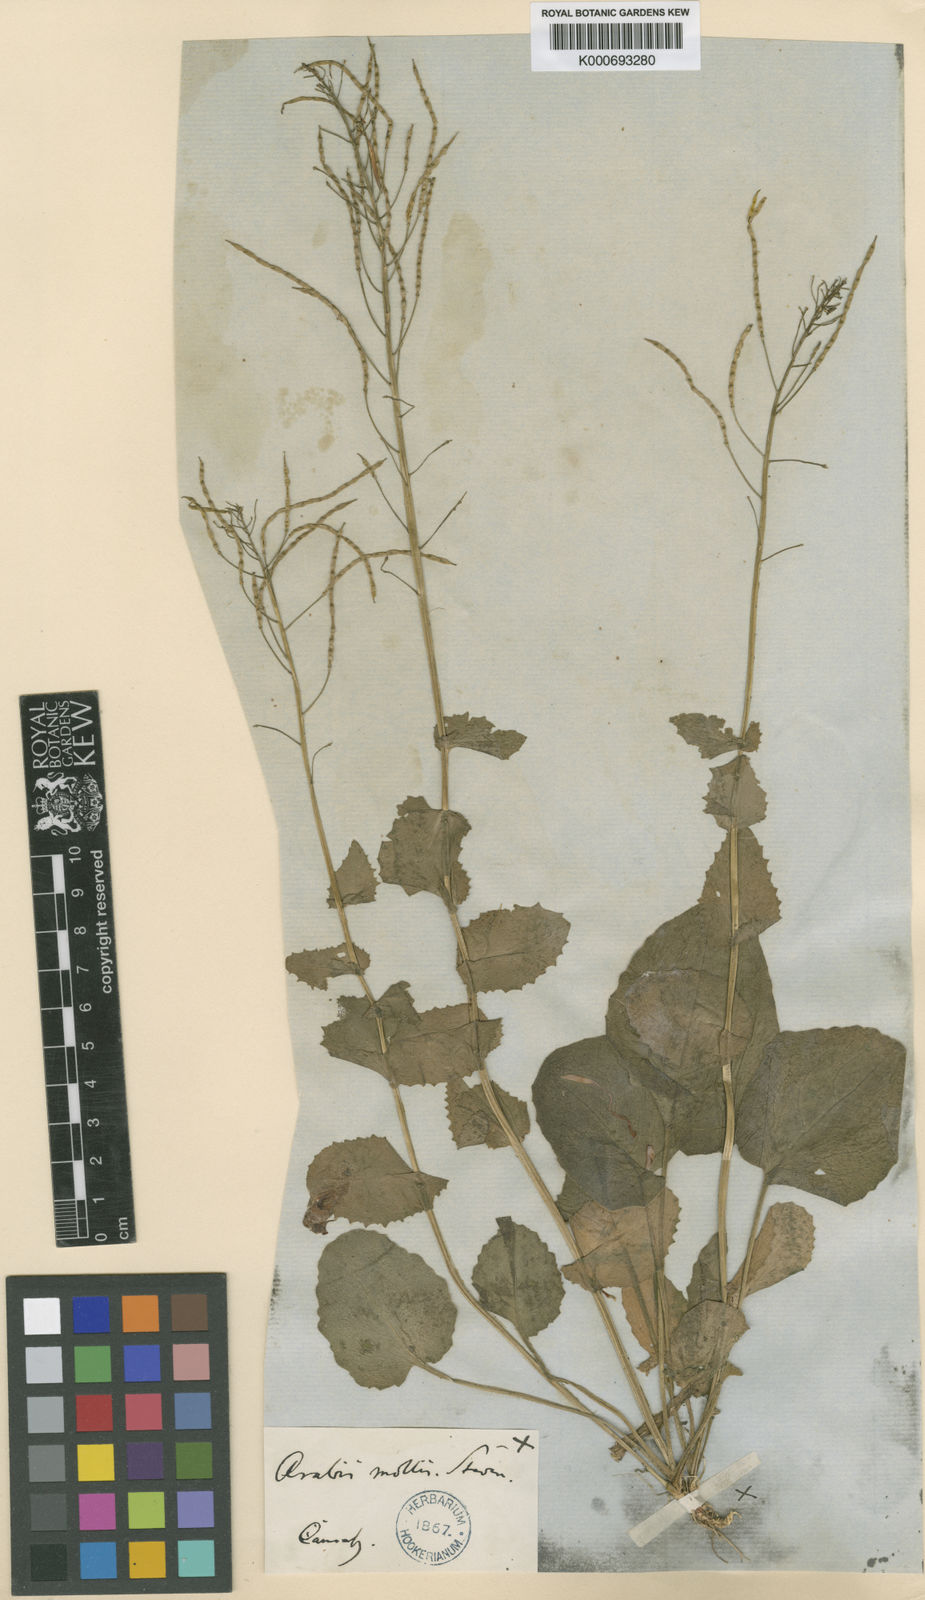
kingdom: Plantae
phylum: Tracheophyta
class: Magnoliopsida
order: Brassicales
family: Brassicaceae
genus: Arabis
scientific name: Arabis christiani
